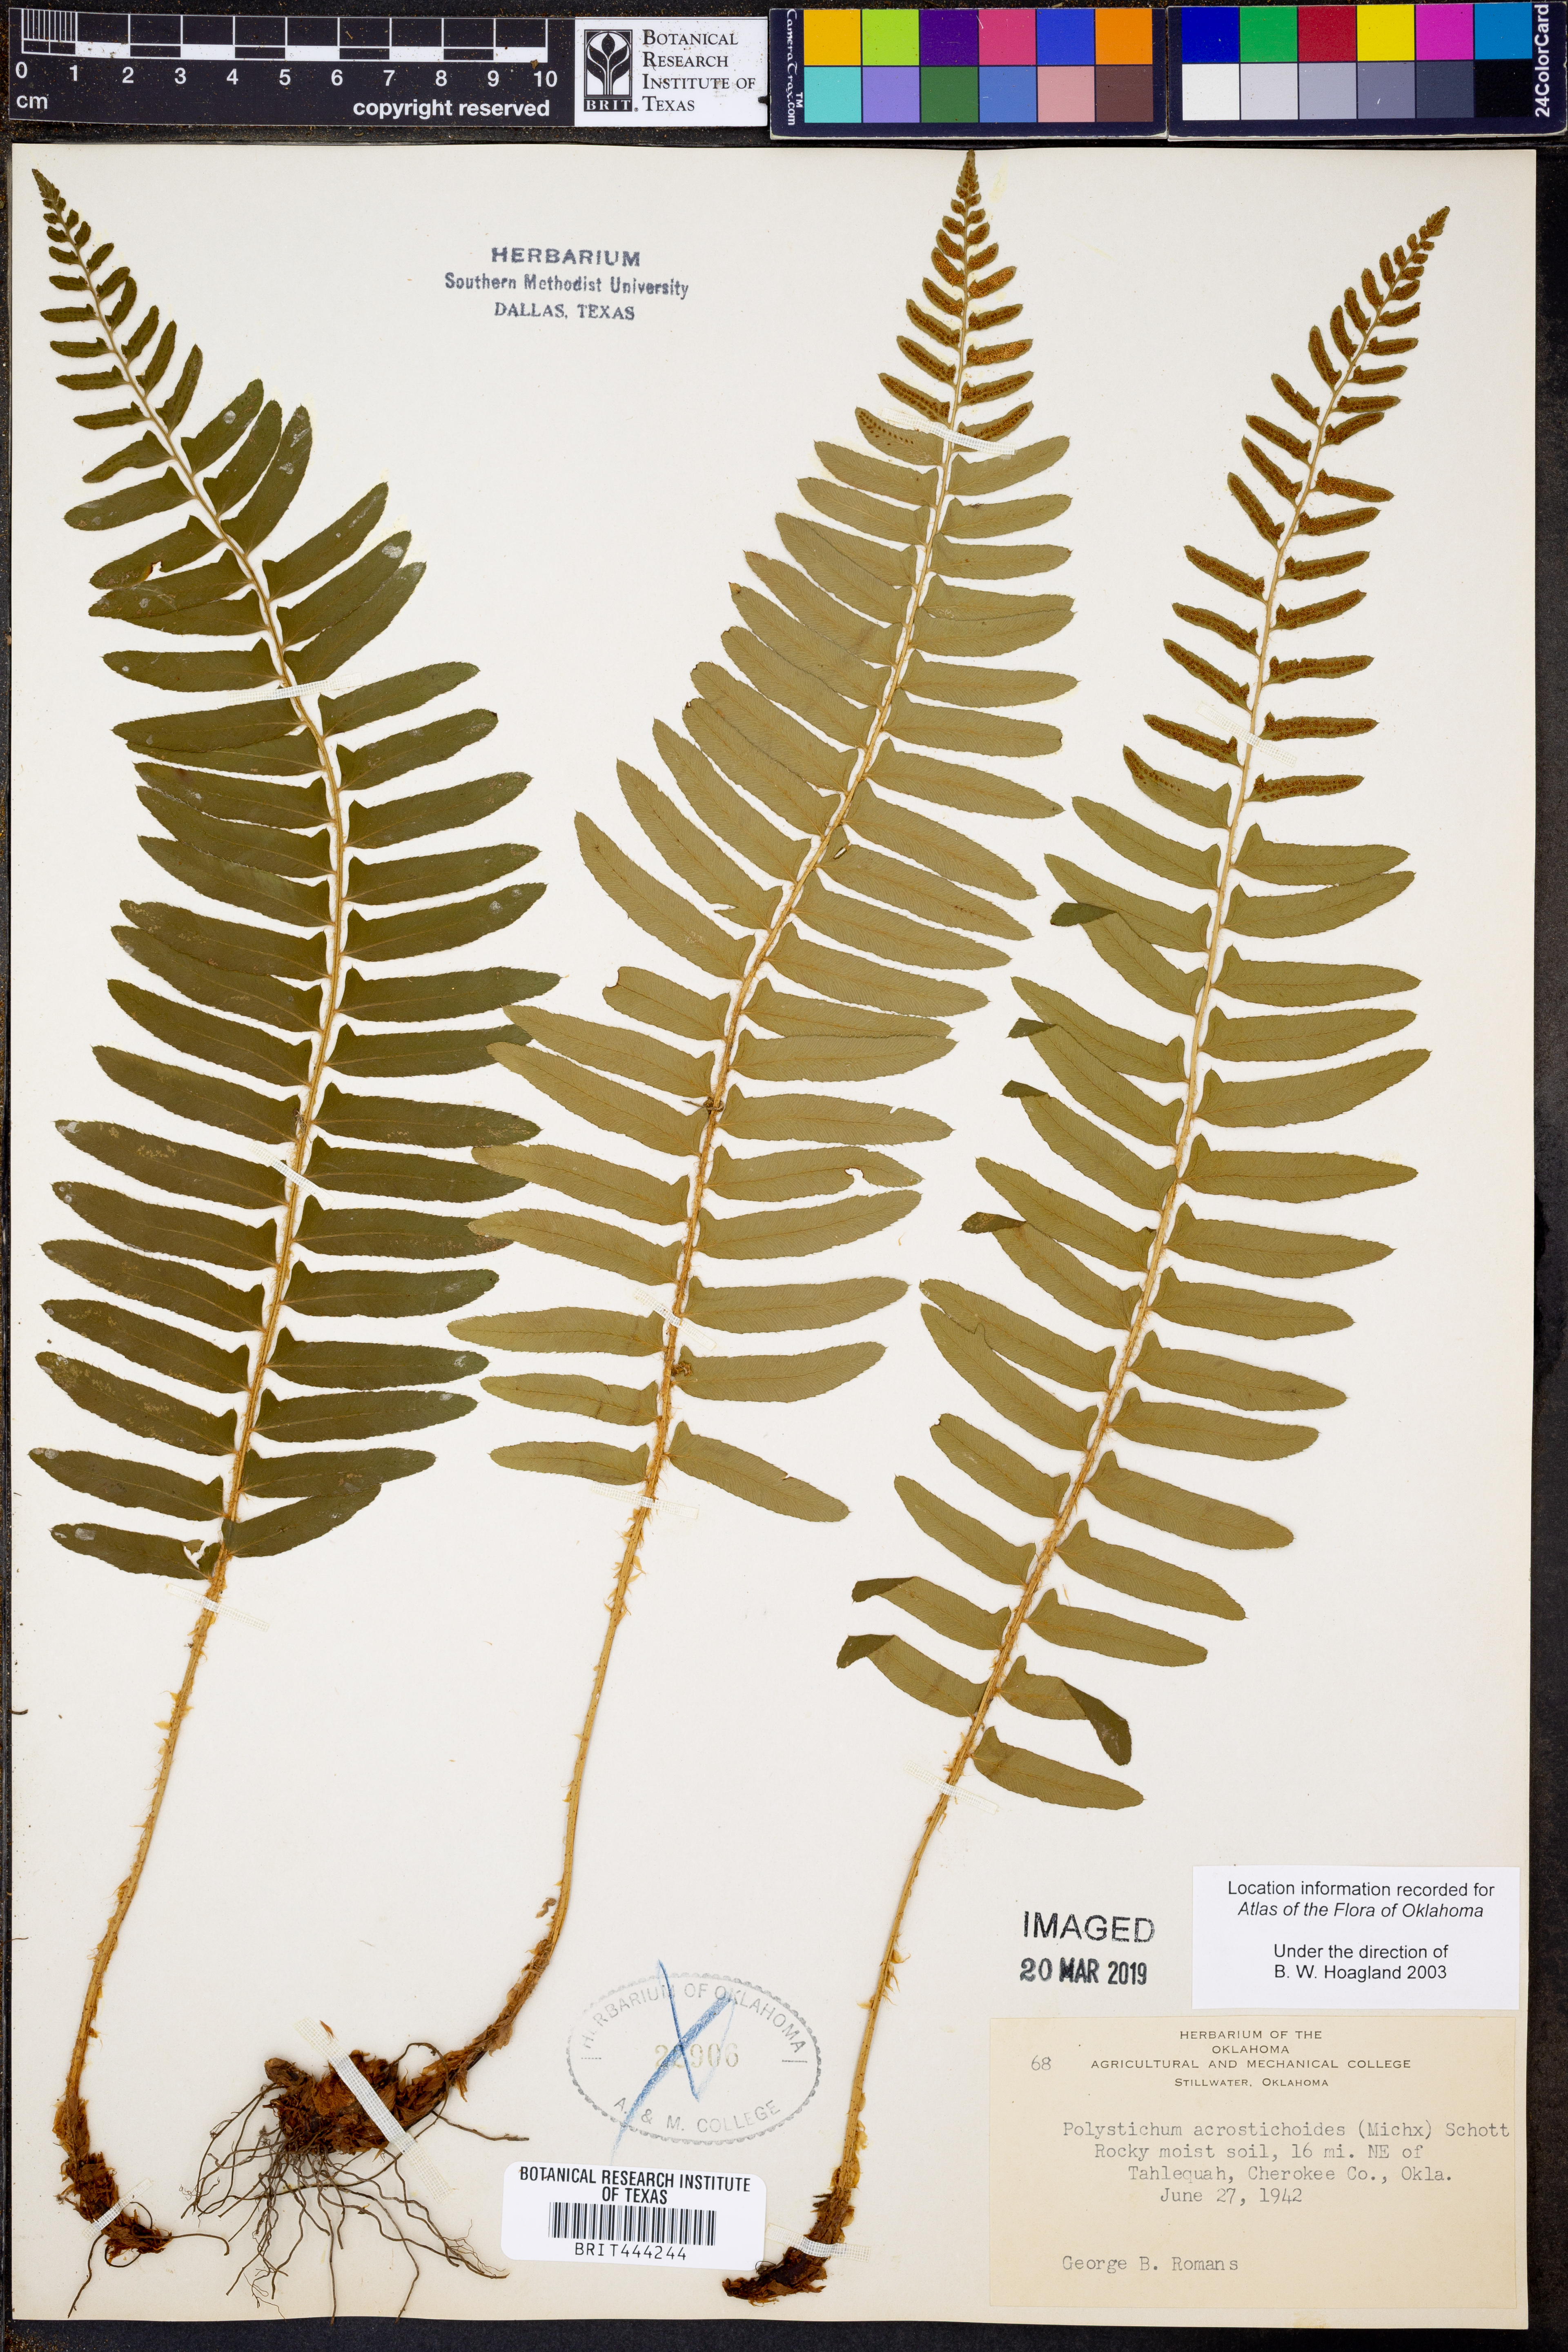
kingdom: Plantae
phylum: Tracheophyta
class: Polypodiopsida
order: Polypodiales
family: Dryopteridaceae
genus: Polystichum
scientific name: Polystichum acrostichoides
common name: Christmas fern
